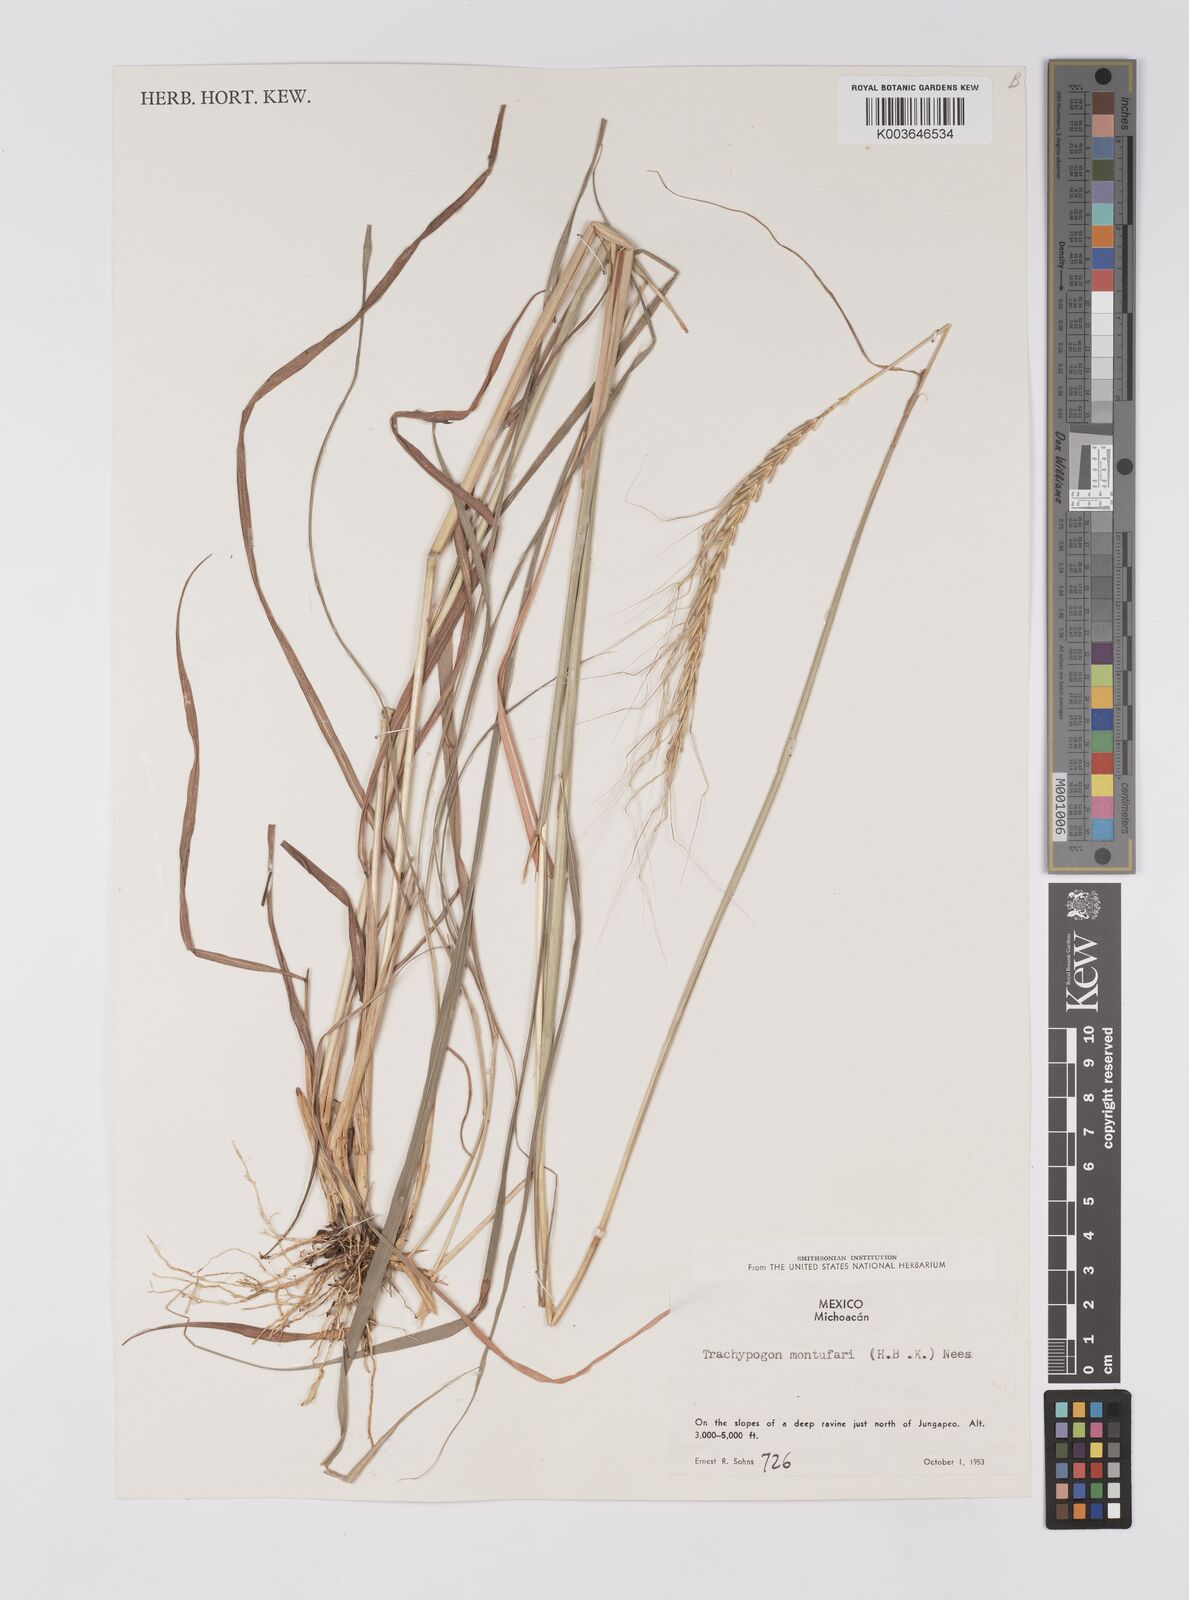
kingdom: Plantae
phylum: Tracheophyta
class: Liliopsida
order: Poales
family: Poaceae
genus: Trachypogon
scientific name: Trachypogon spicatus
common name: Crinkle-awn
